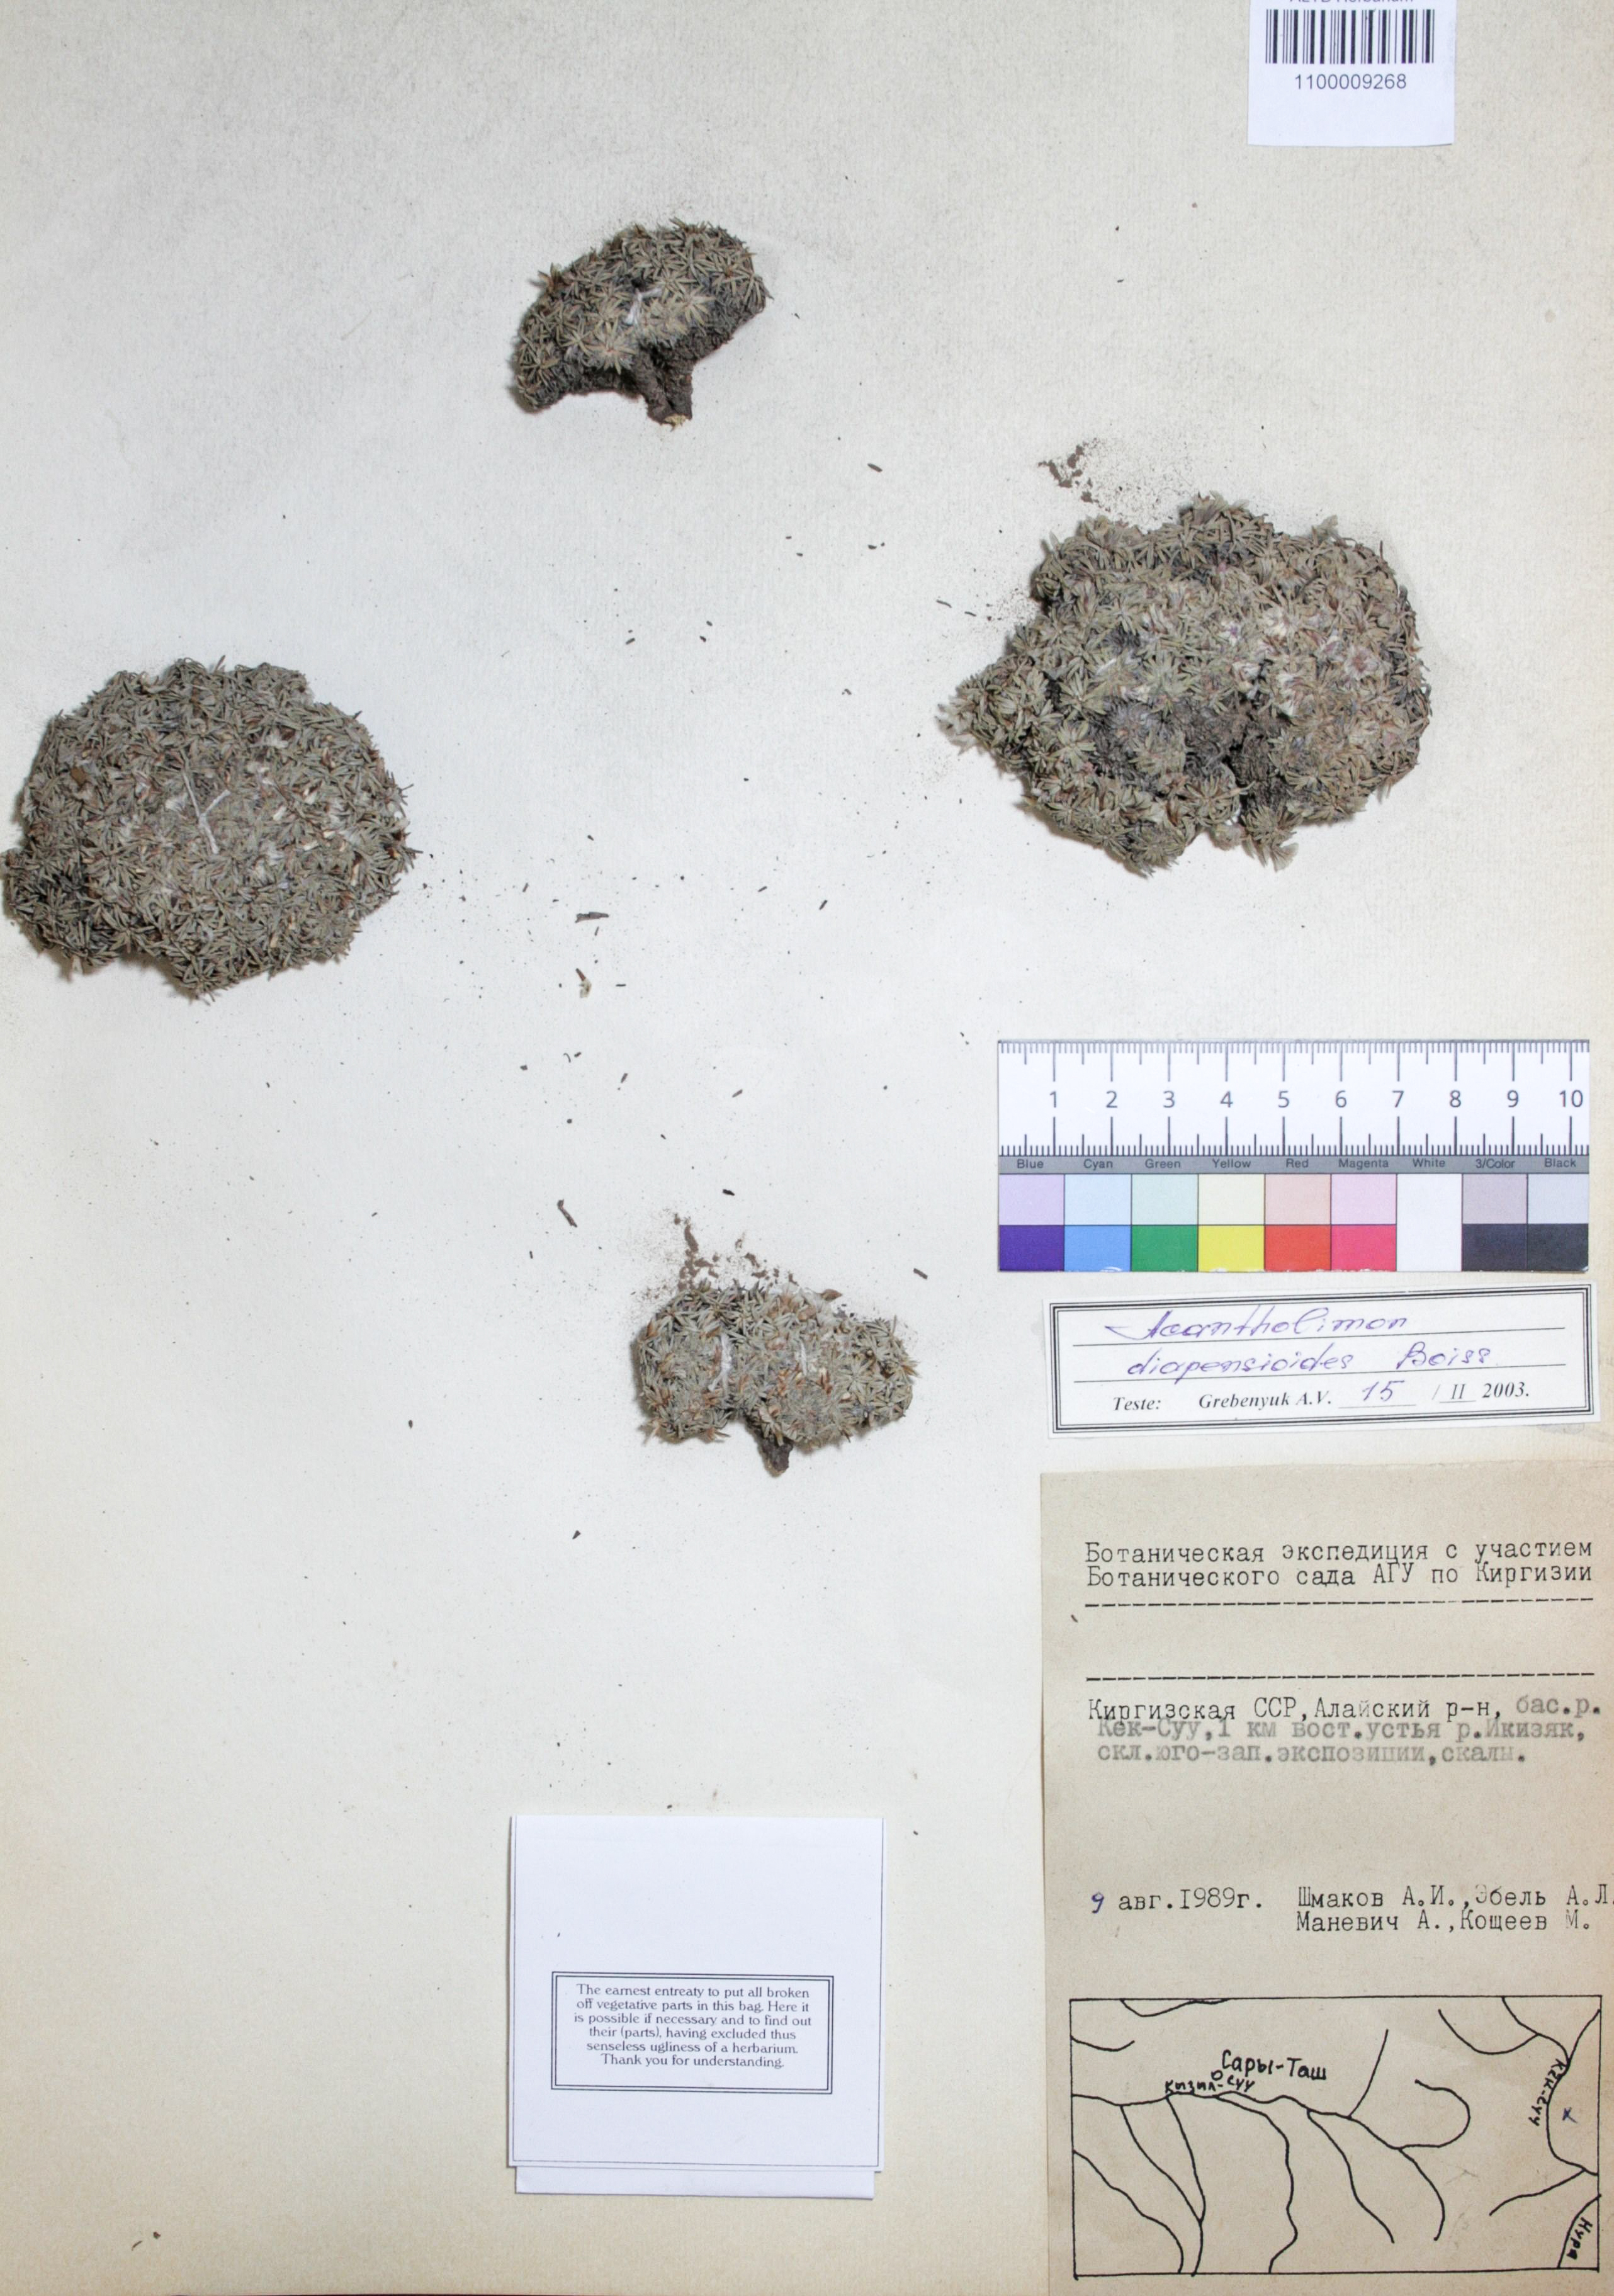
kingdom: Plantae
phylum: Tracheophyta
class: Magnoliopsida
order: Caryophyllales
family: Plumbaginaceae
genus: Acantholimon
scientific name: Acantholimon diapensioides
